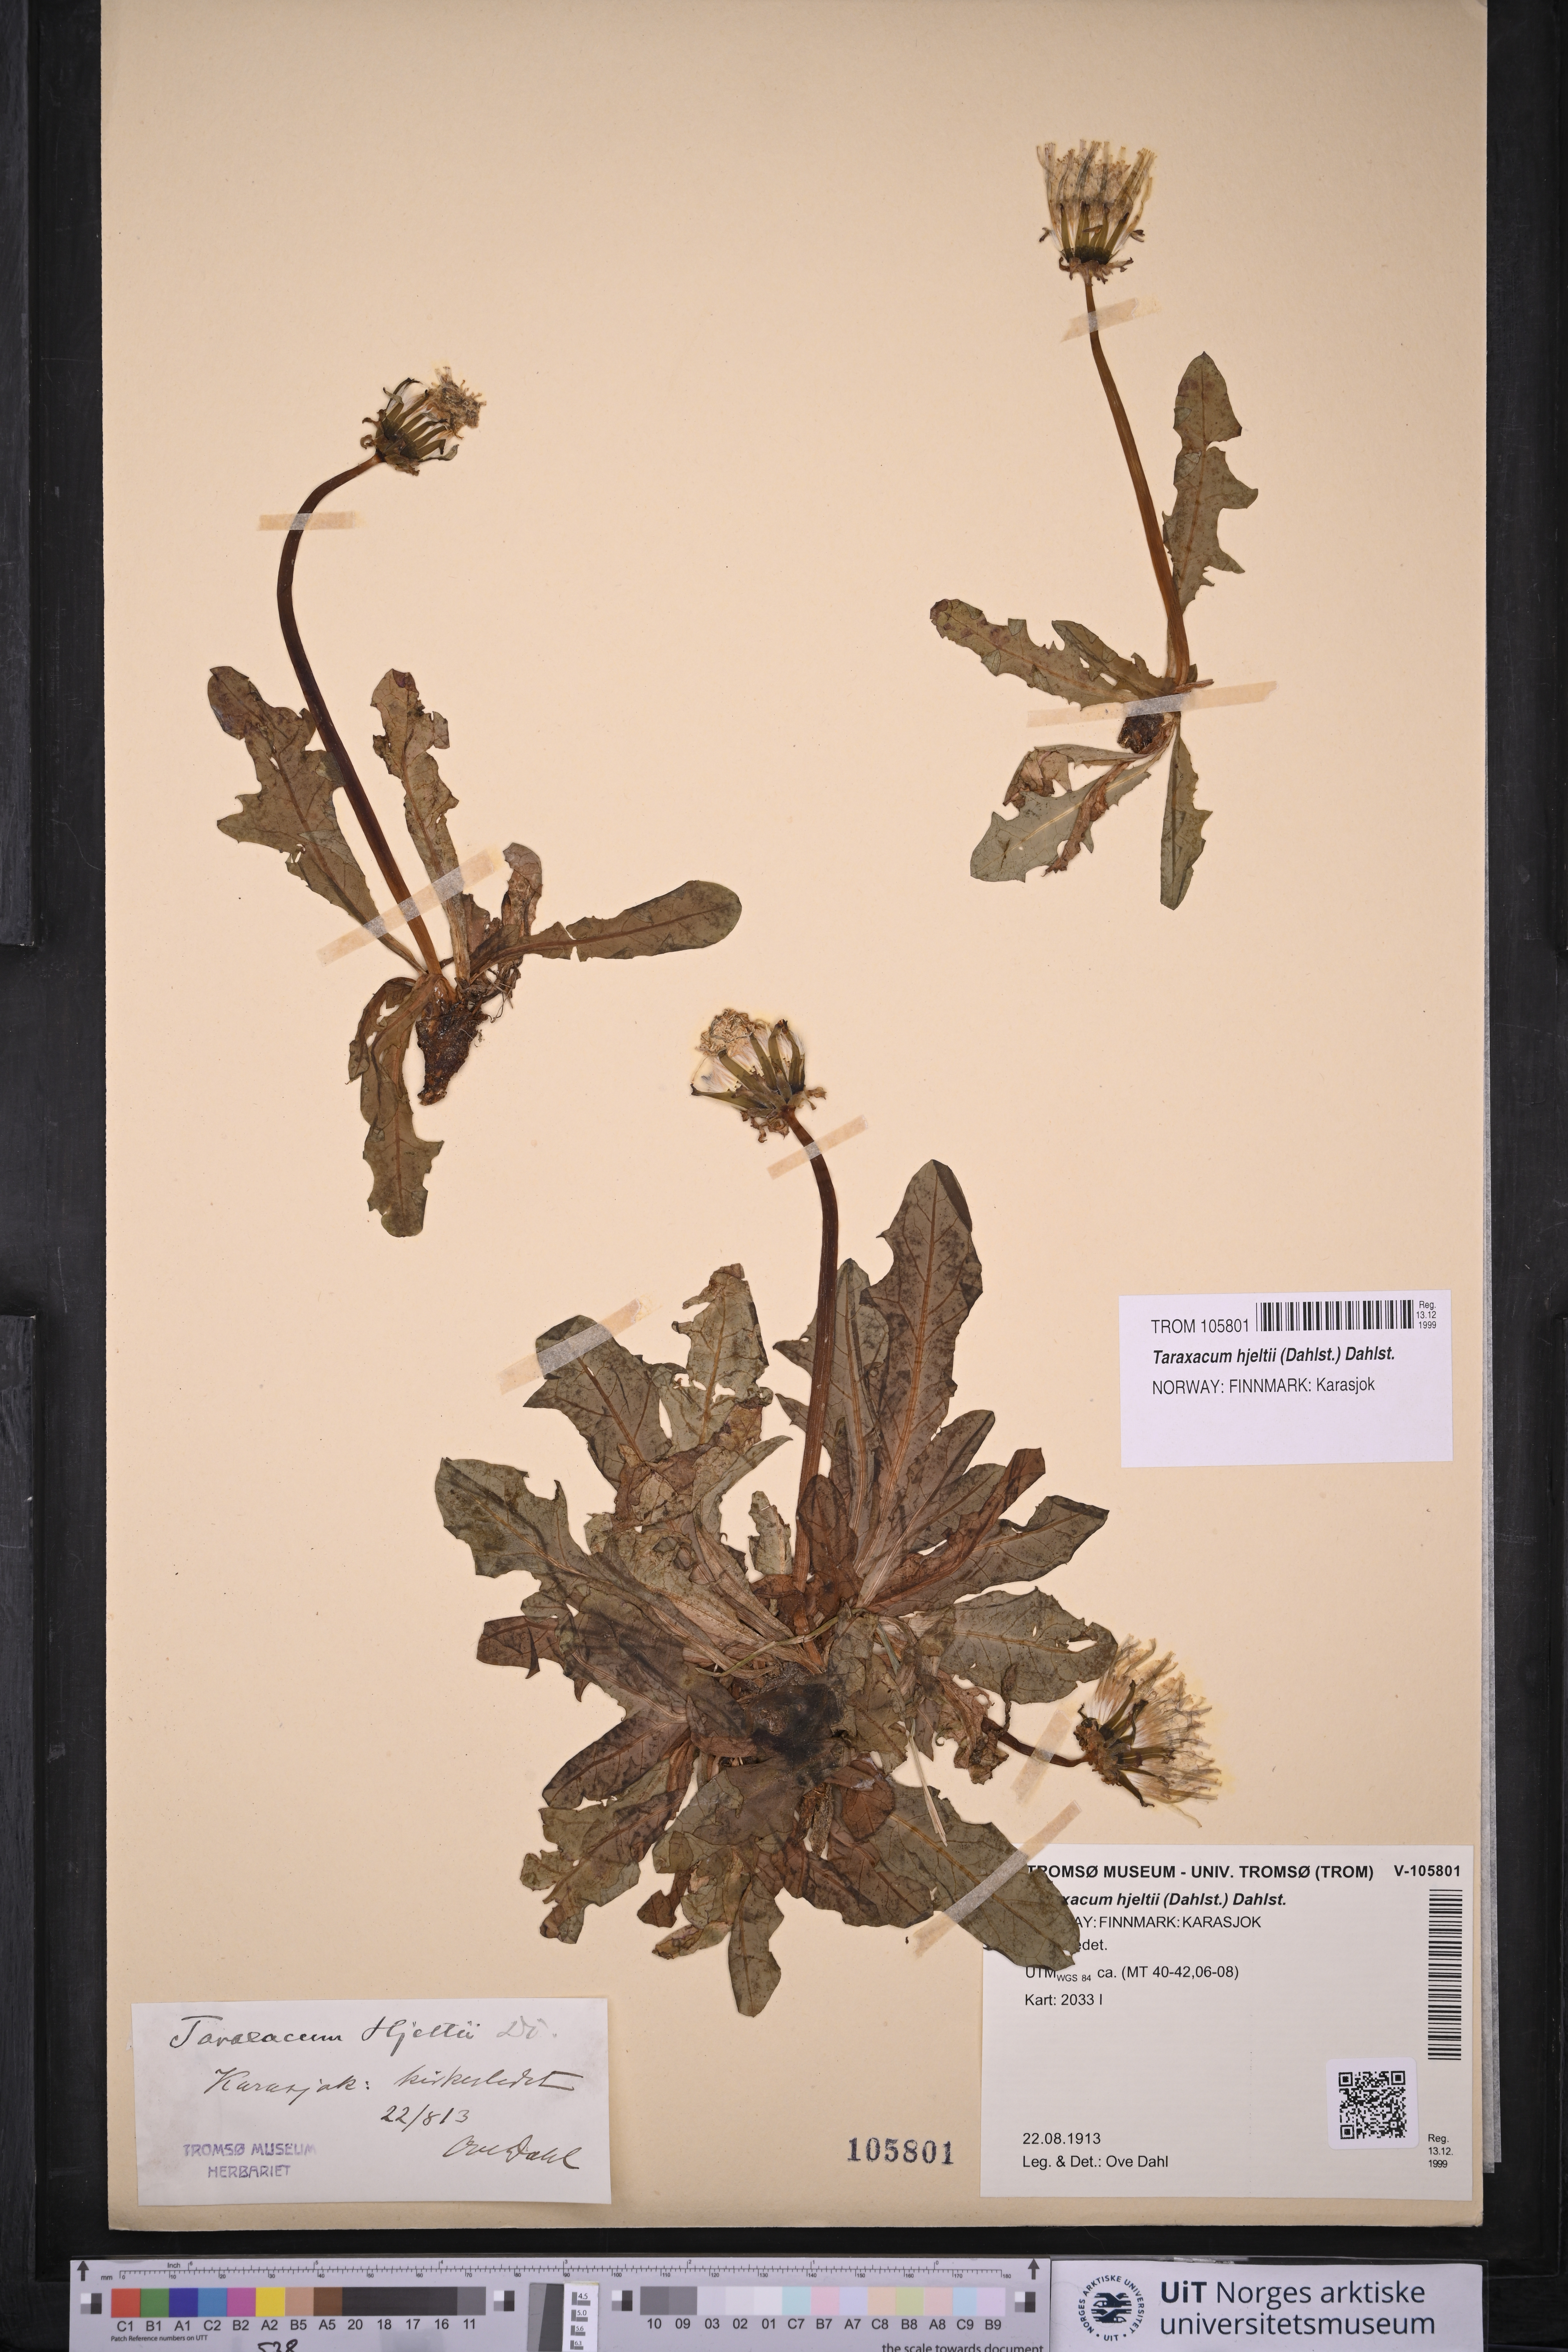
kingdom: Plantae
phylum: Tracheophyta
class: Magnoliopsida
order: Asterales
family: Asteraceae
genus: Taraxacum
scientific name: Taraxacum hjeltii
